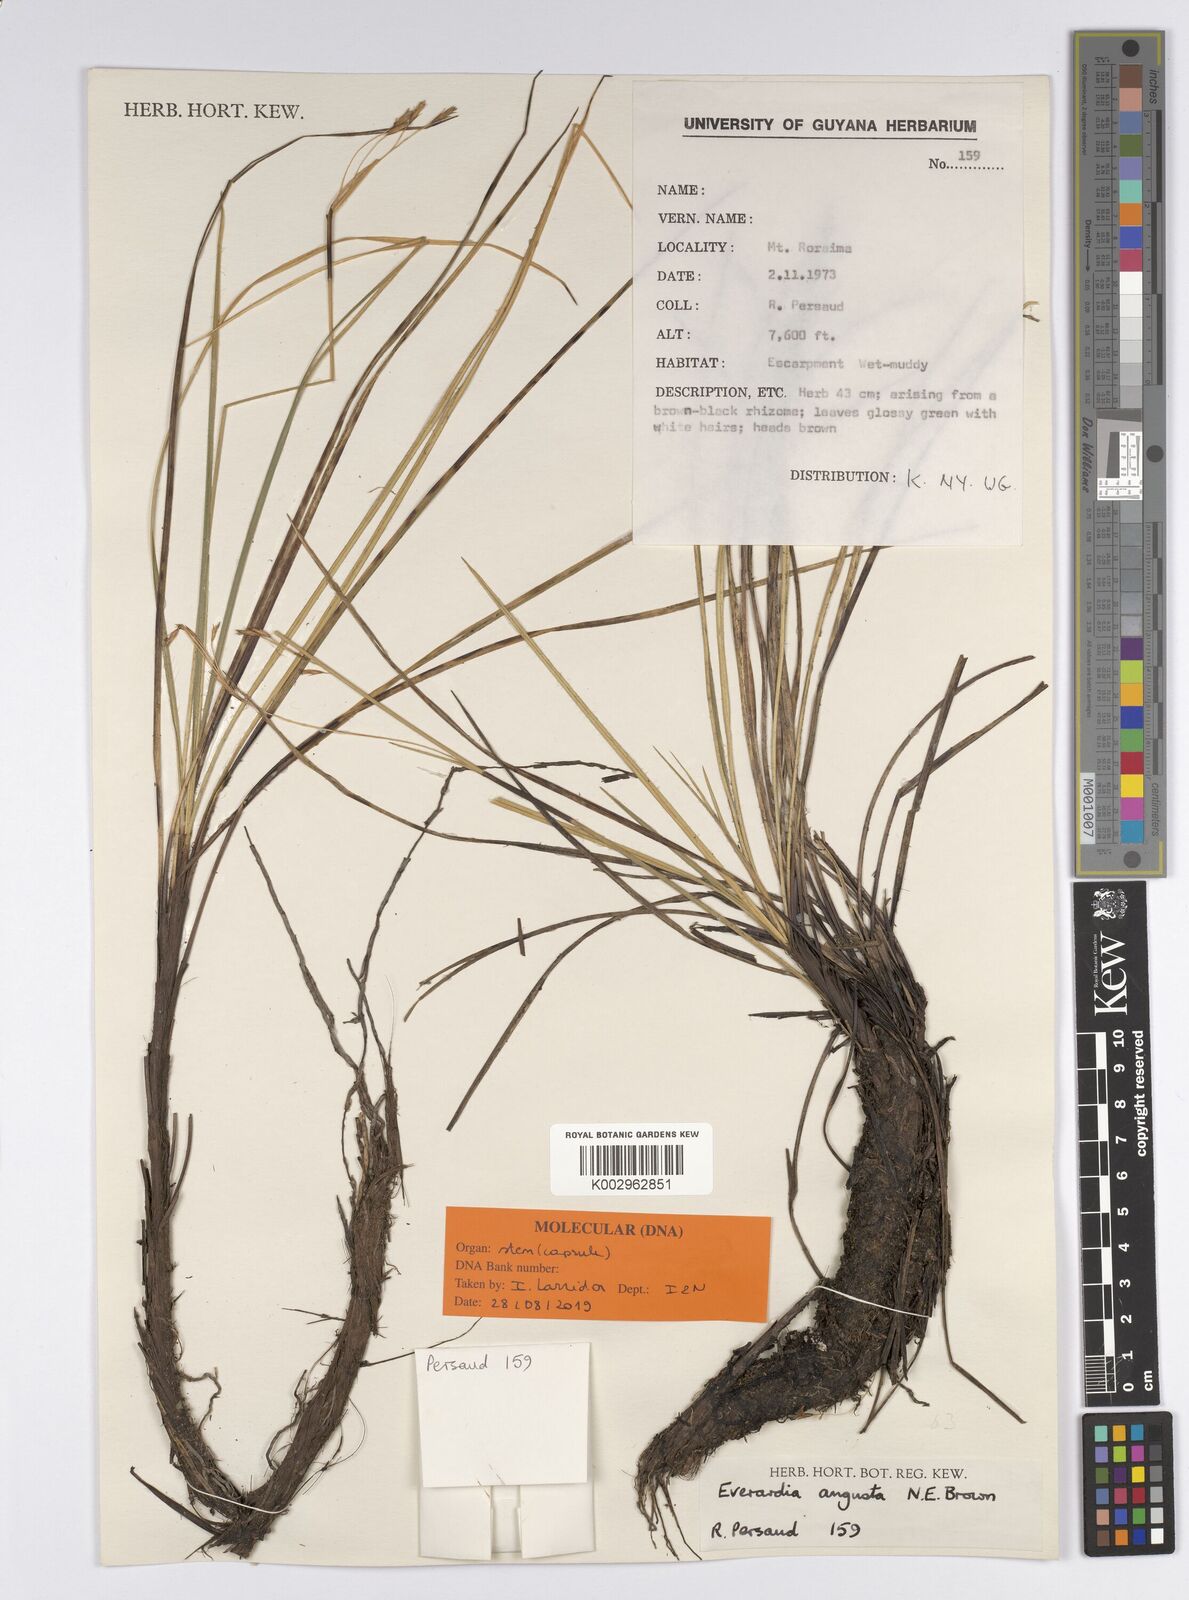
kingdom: Plantae
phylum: Tracheophyta
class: Liliopsida
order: Poales
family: Cyperaceae
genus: Cephalocarpus
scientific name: Cephalocarpus angustus
